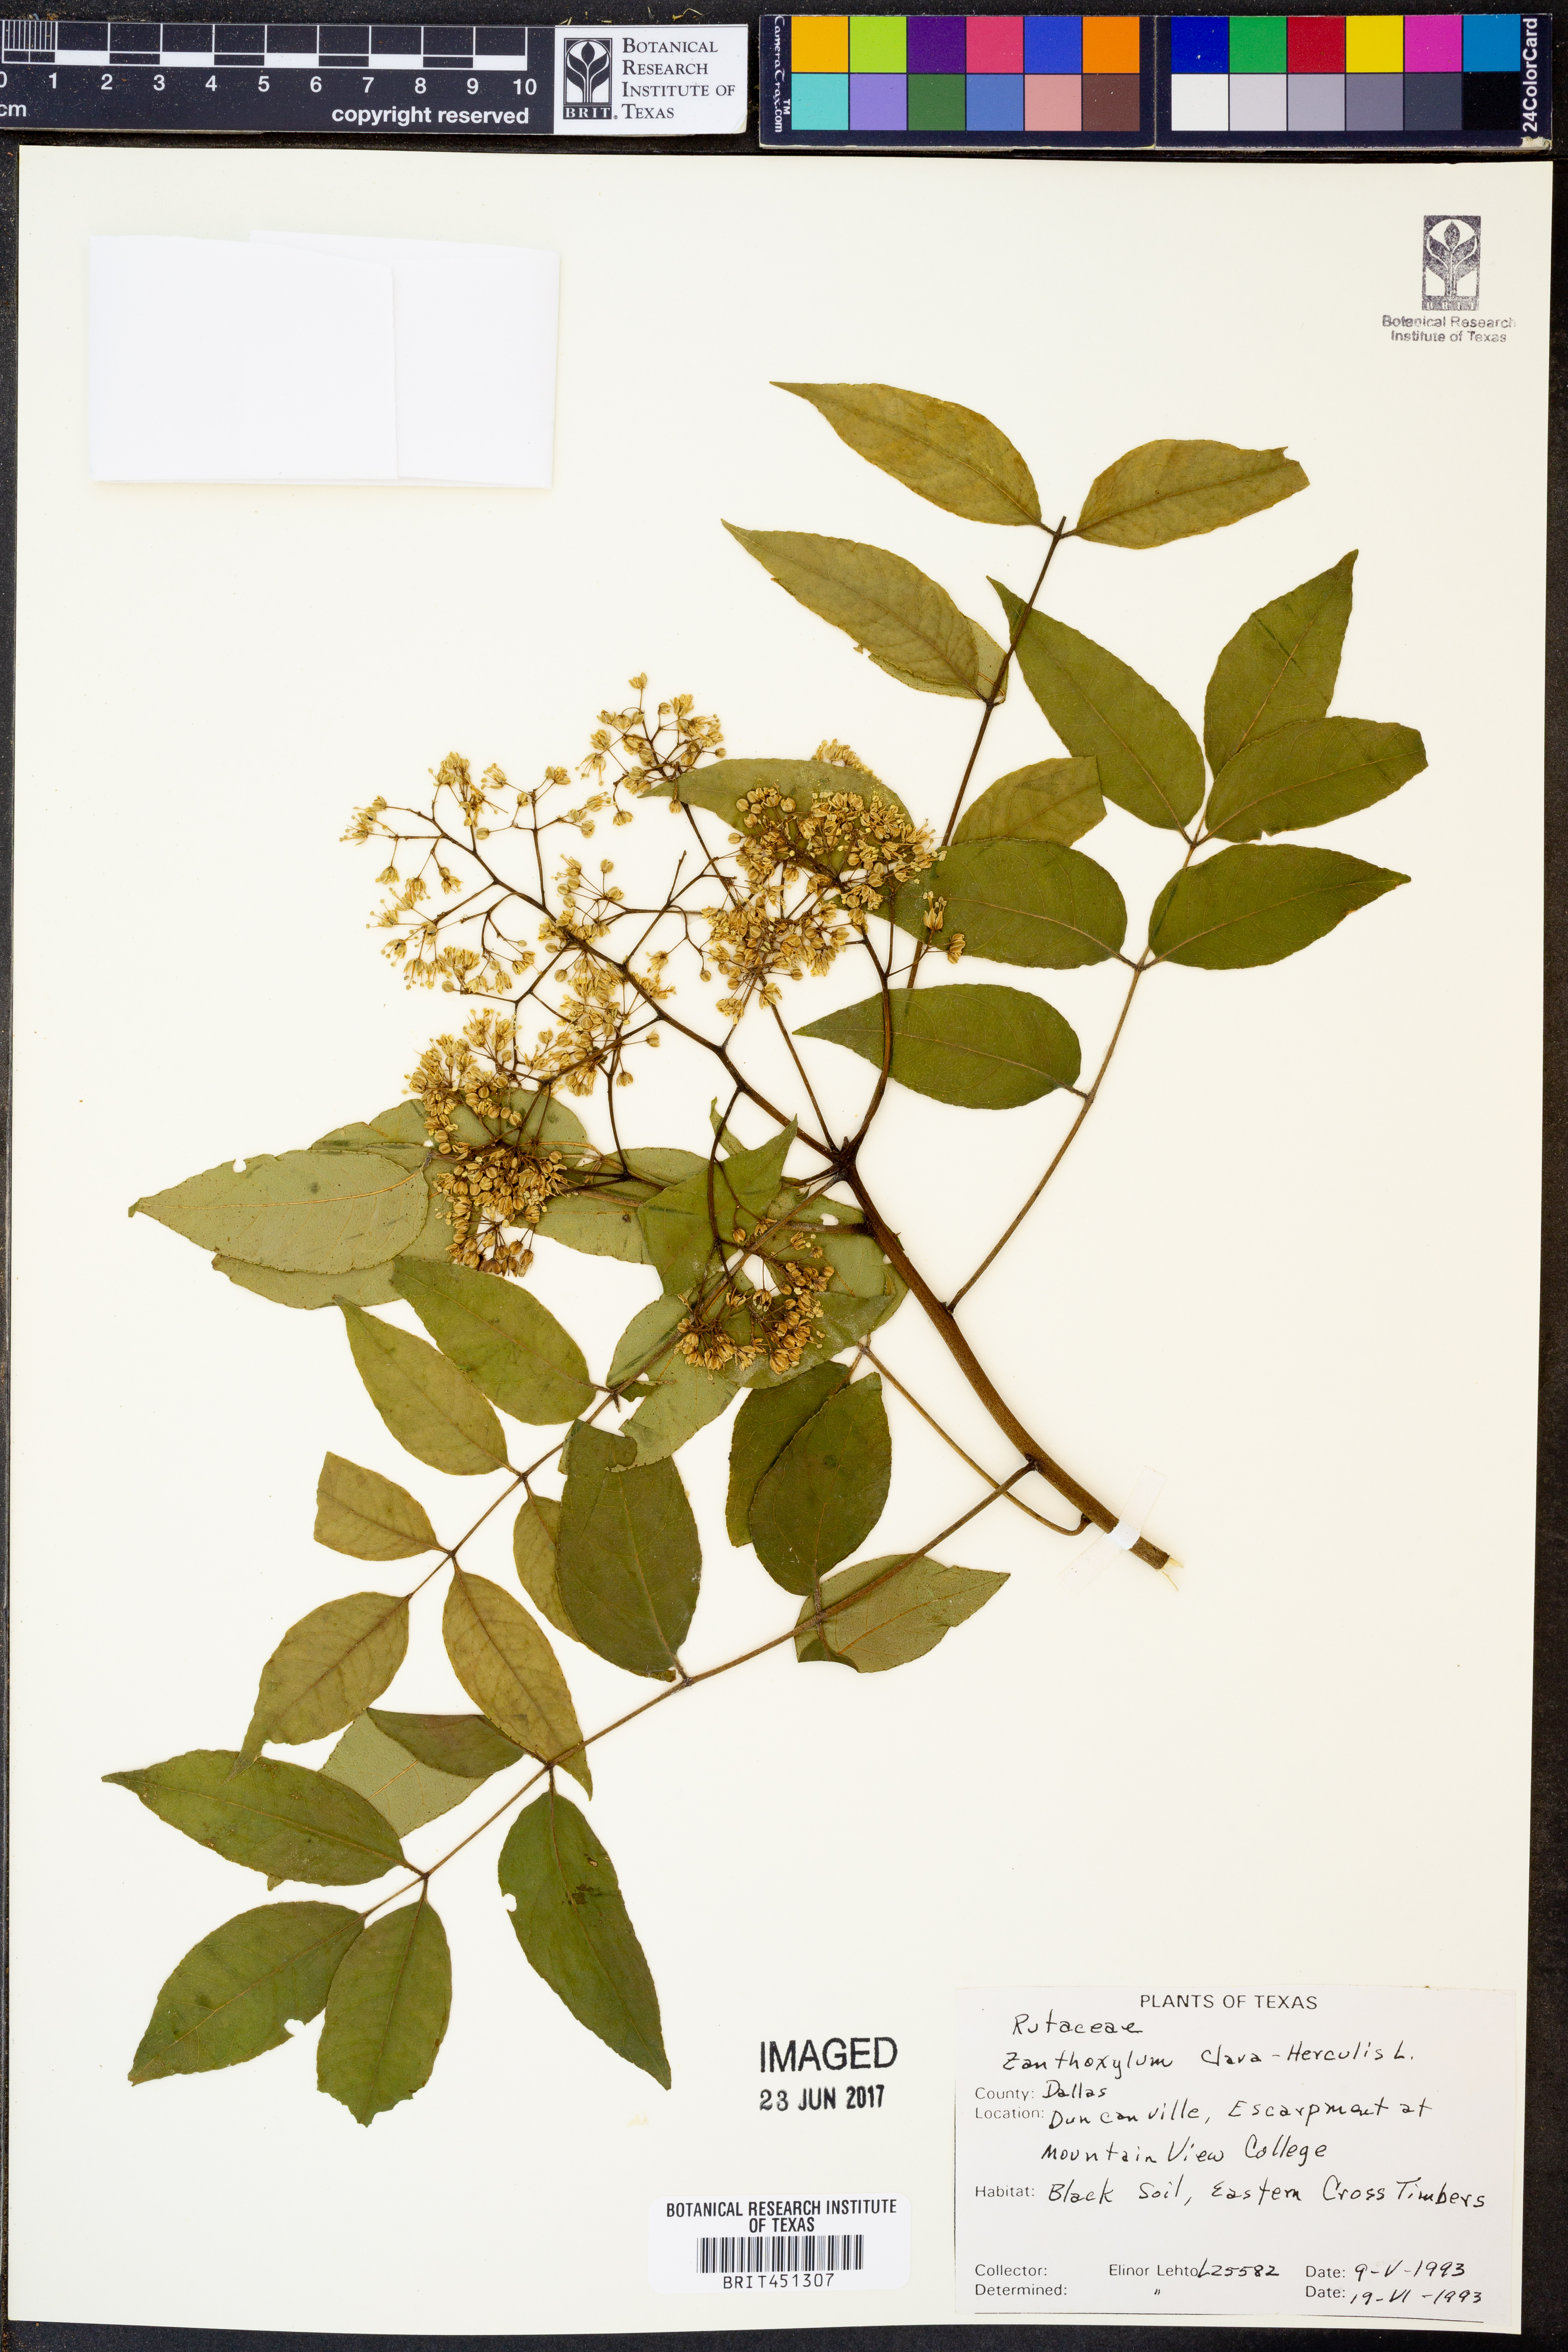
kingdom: Plantae
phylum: Tracheophyta
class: Magnoliopsida
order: Sapindales
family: Rutaceae
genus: Zanthoxylum
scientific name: Zanthoxylum avicennae
